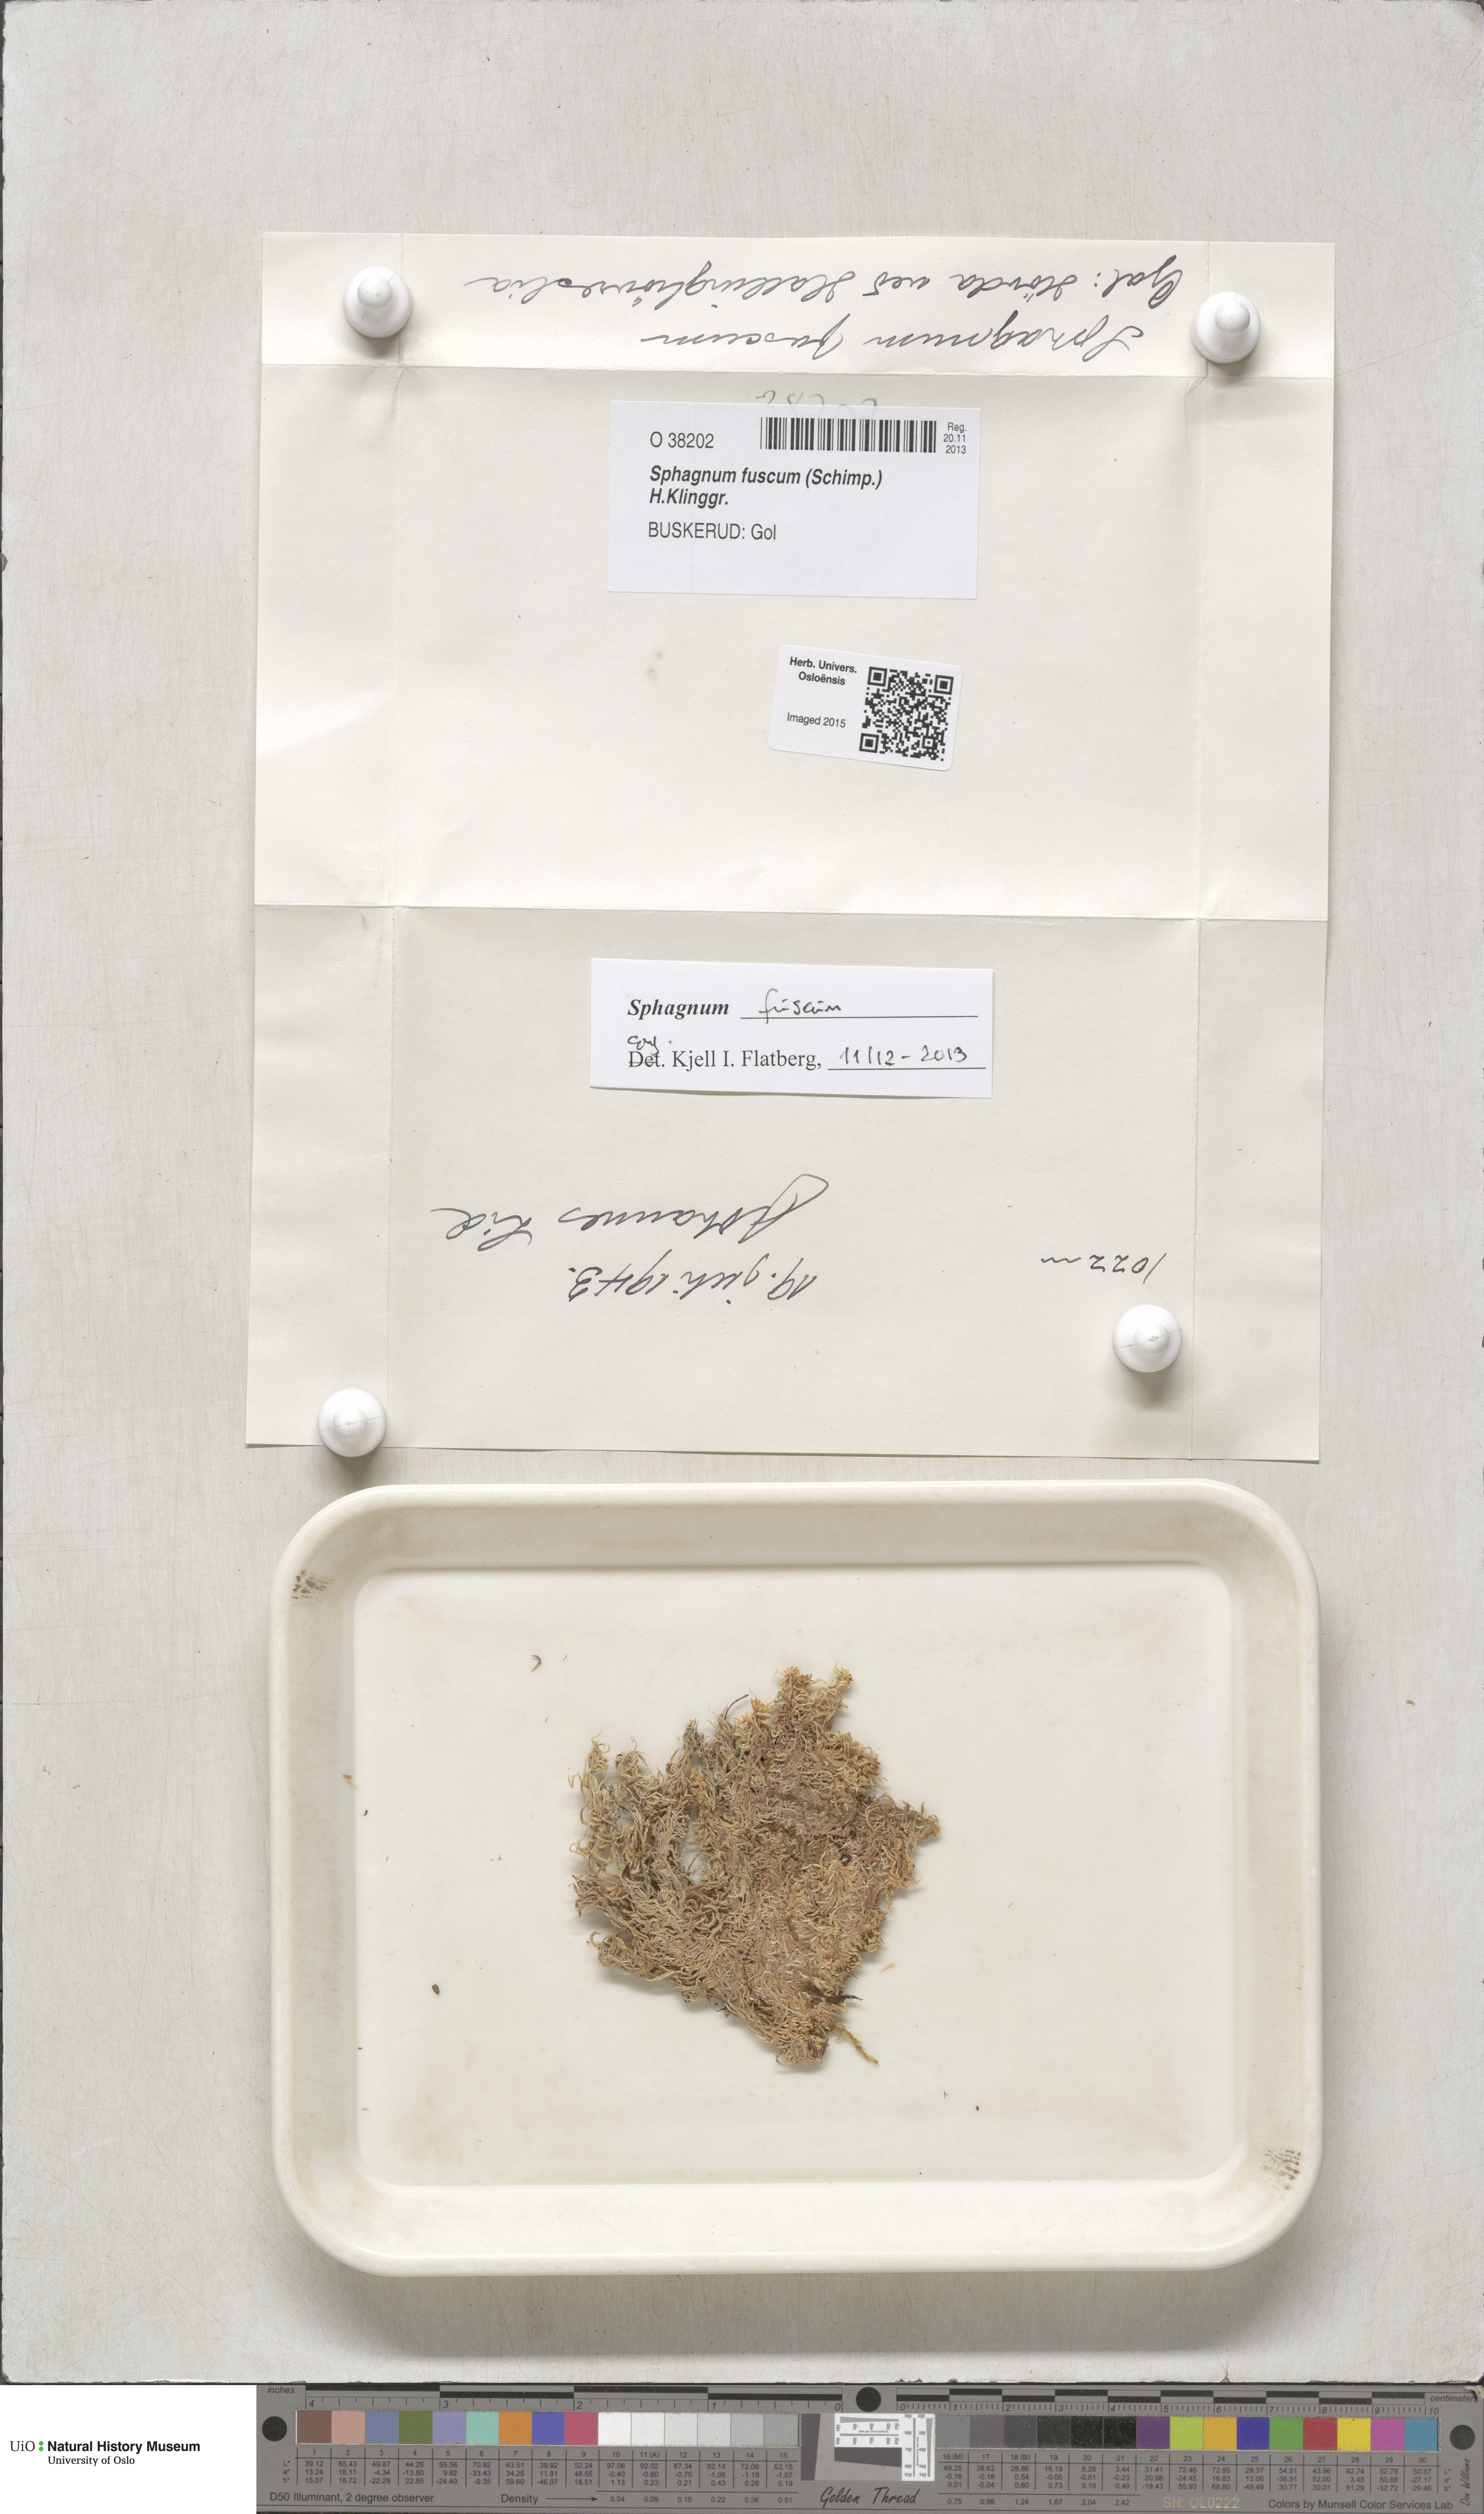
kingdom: Plantae
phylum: Bryophyta
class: Sphagnopsida
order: Sphagnales
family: Sphagnaceae
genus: Sphagnum
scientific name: Sphagnum fuscum
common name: Brown peat moss
